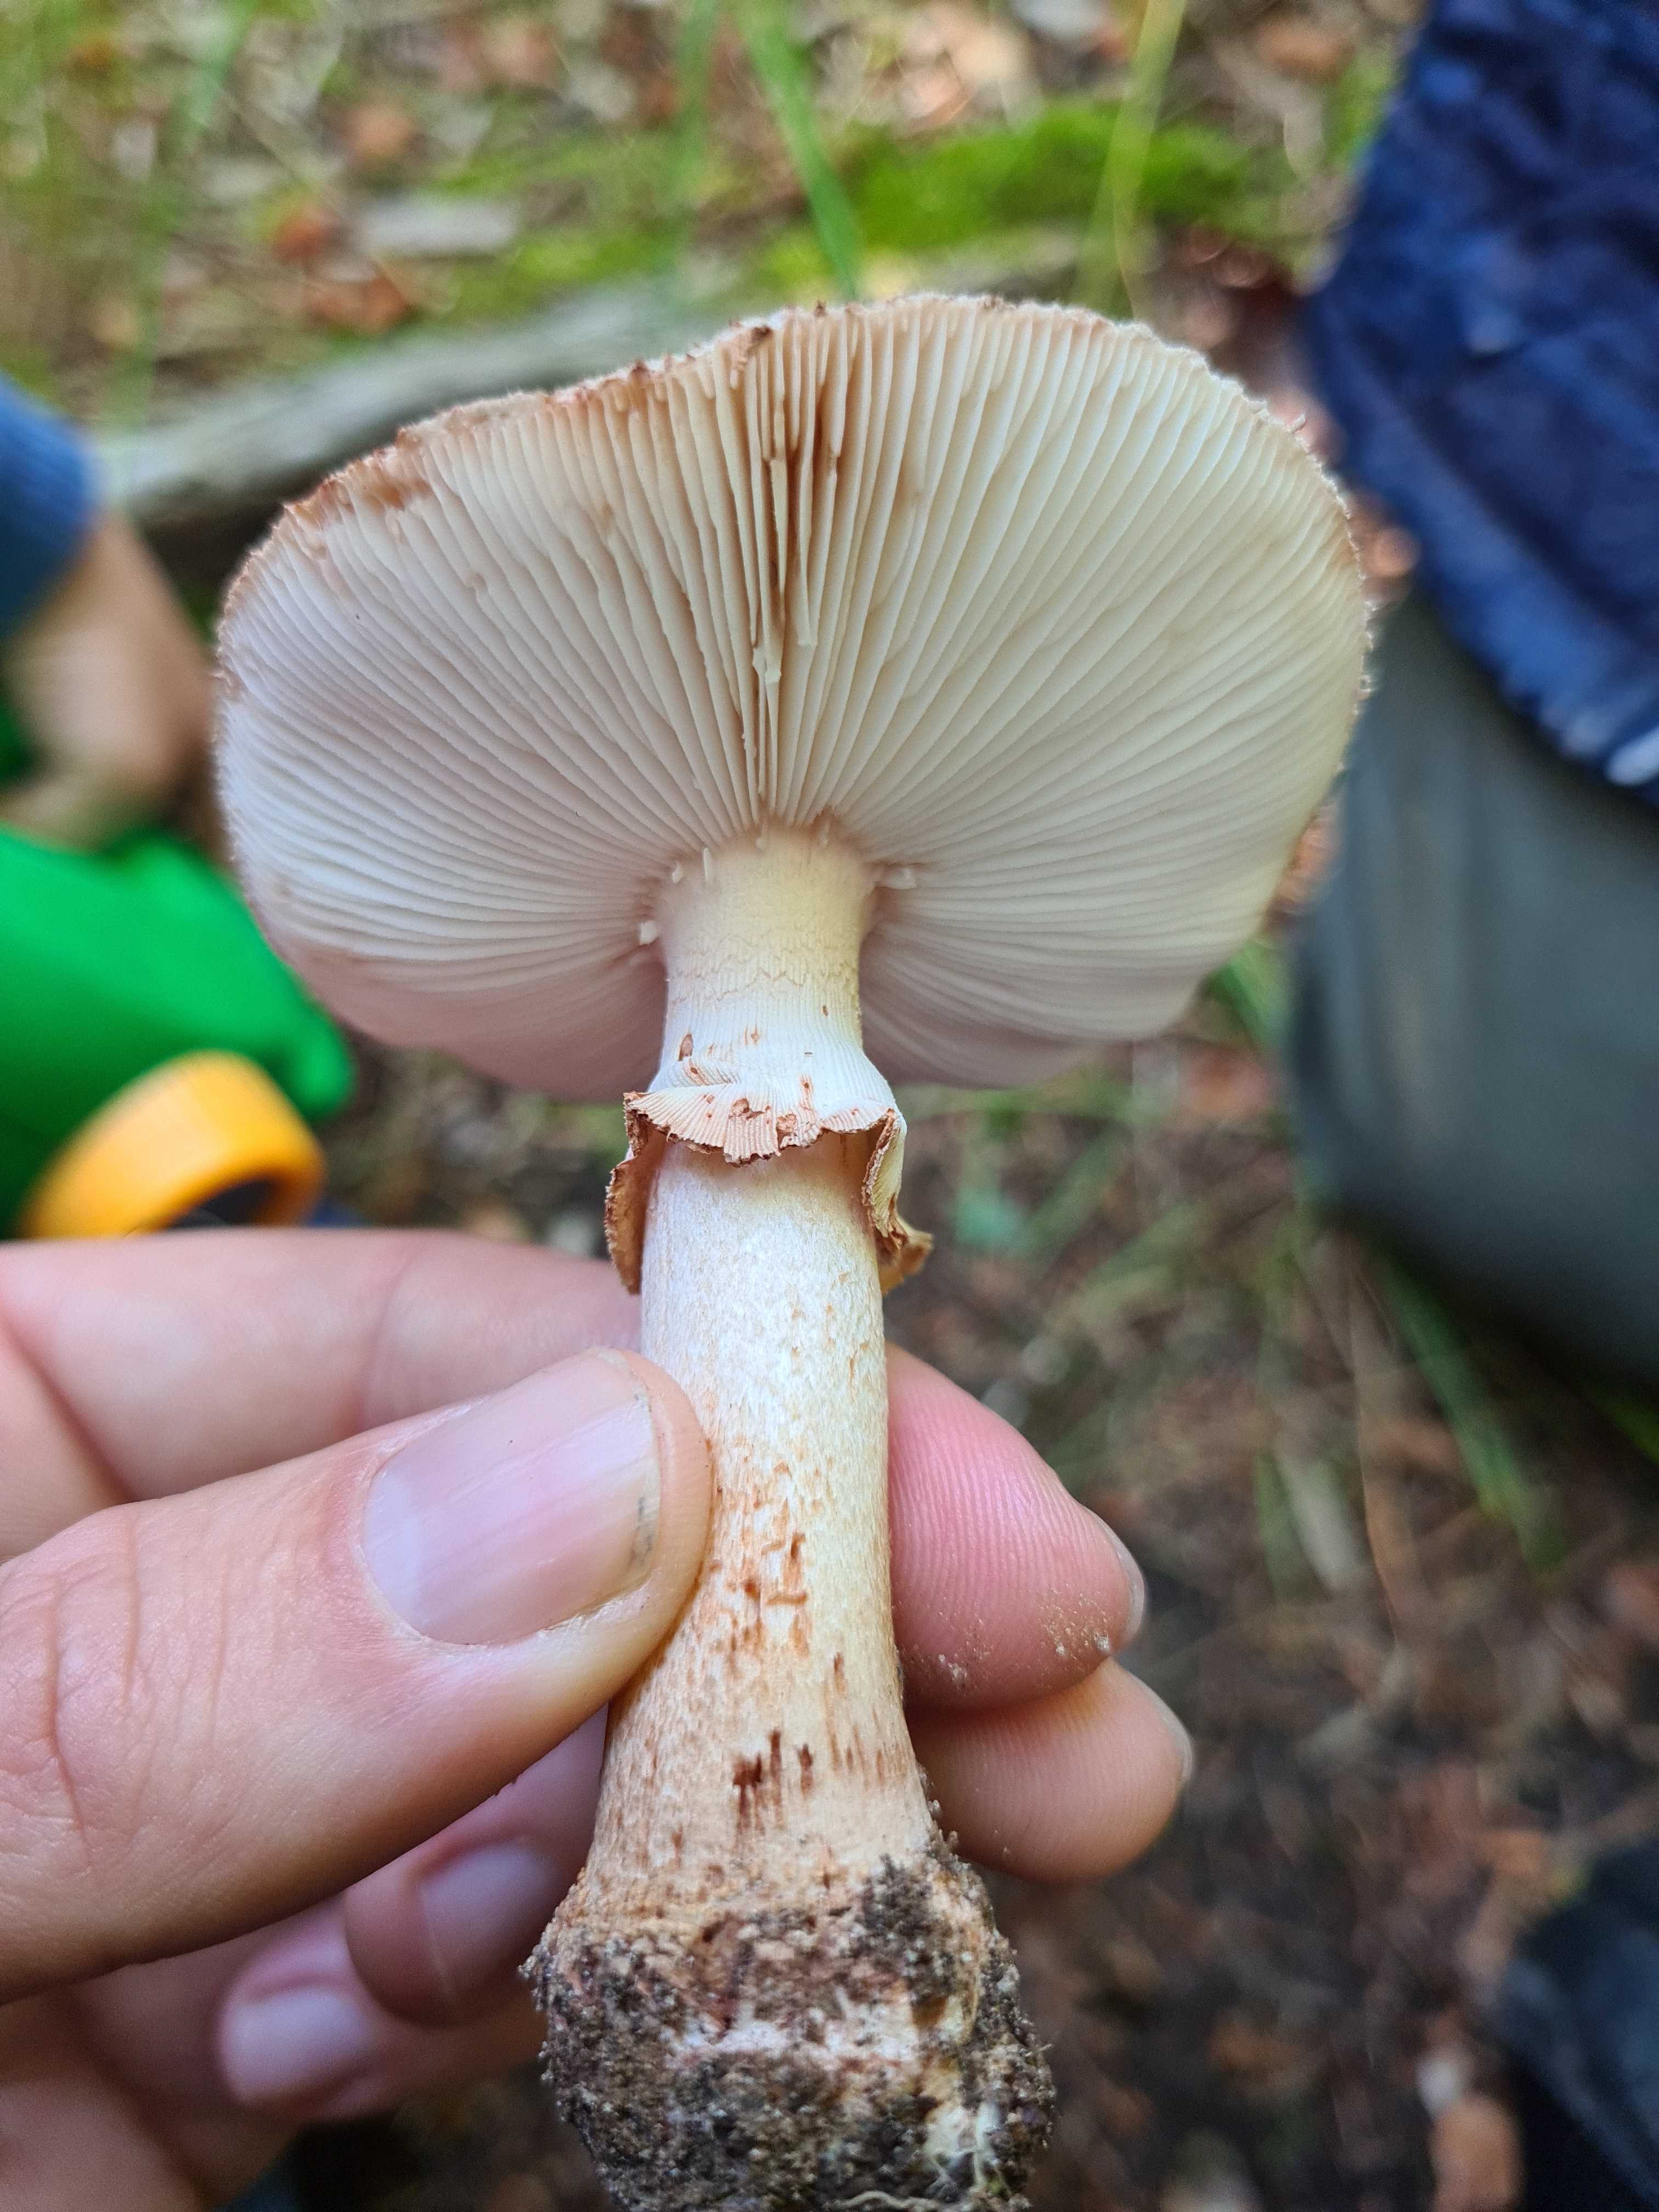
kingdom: Fungi
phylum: Basidiomycota
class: Agaricomycetes
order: Agaricales
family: Amanitaceae
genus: Amanita
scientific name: Amanita rubescens
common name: rødmende fluesvamp
